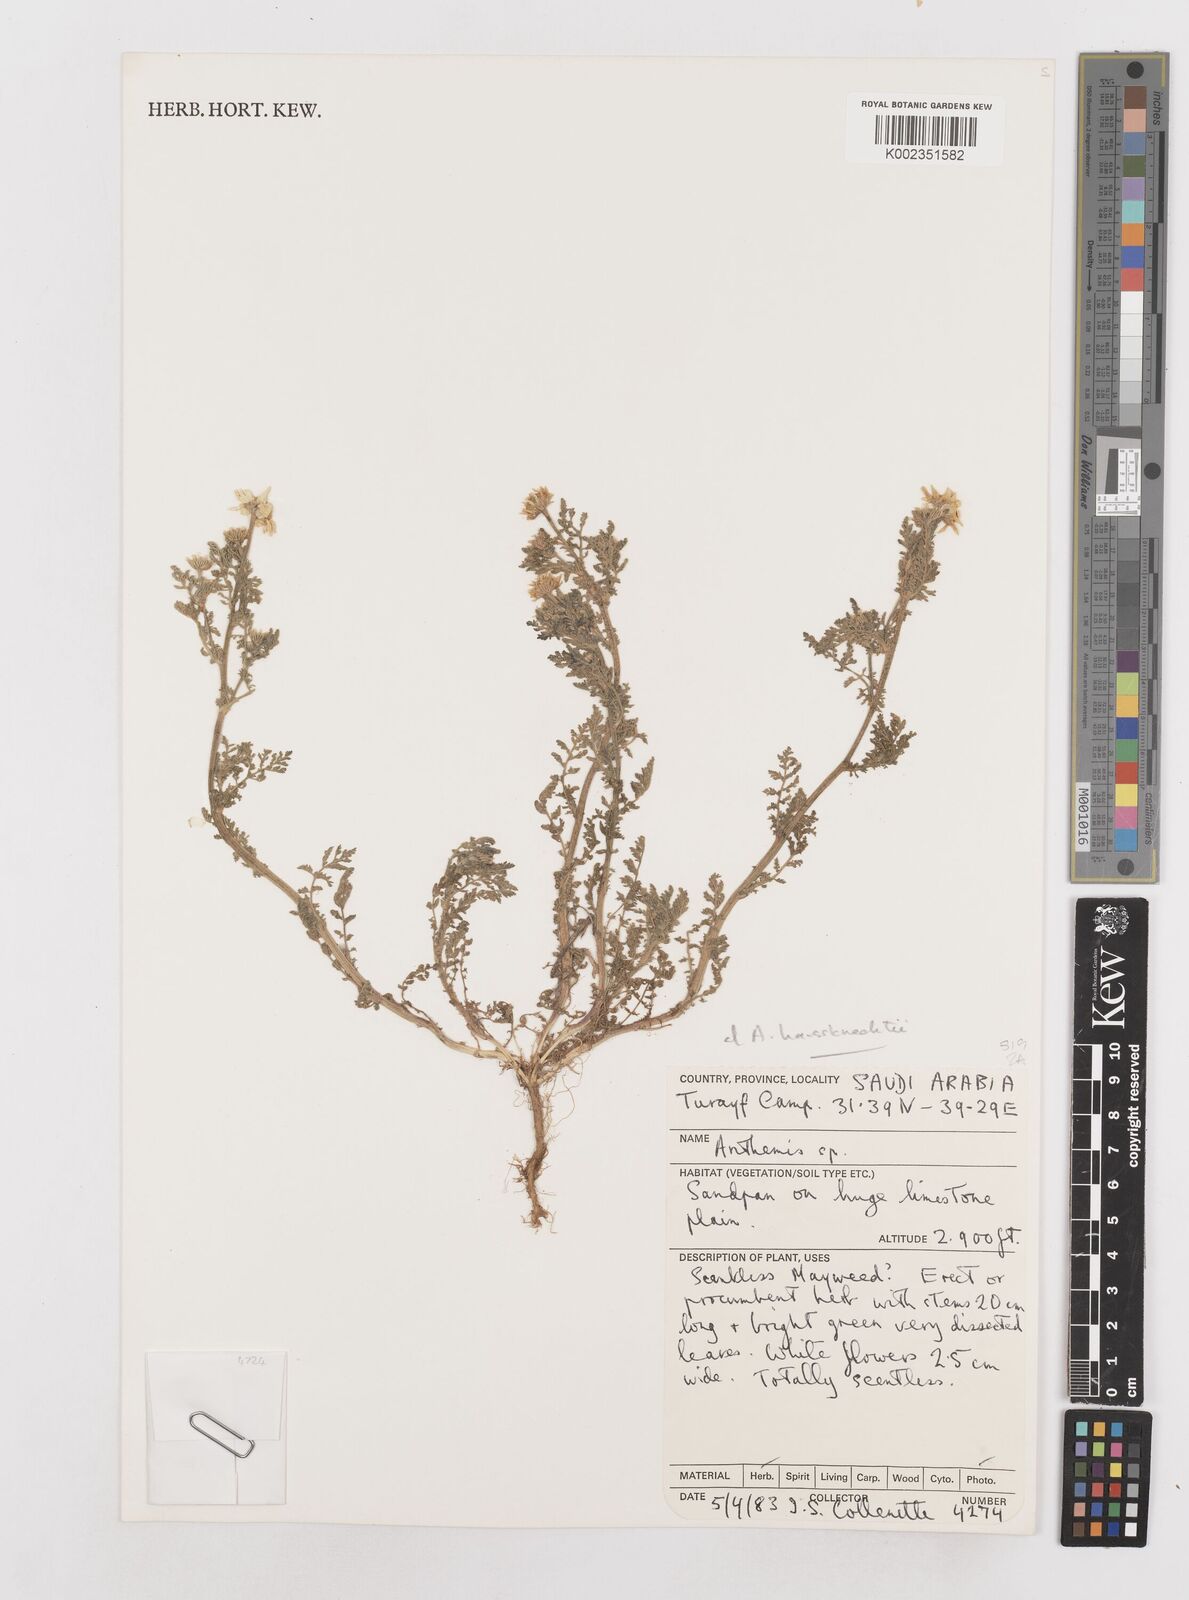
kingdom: Plantae
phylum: Tracheophyta
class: Magnoliopsida
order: Asterales
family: Asteraceae
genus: Anthemis
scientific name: Anthemis haussknechtii
